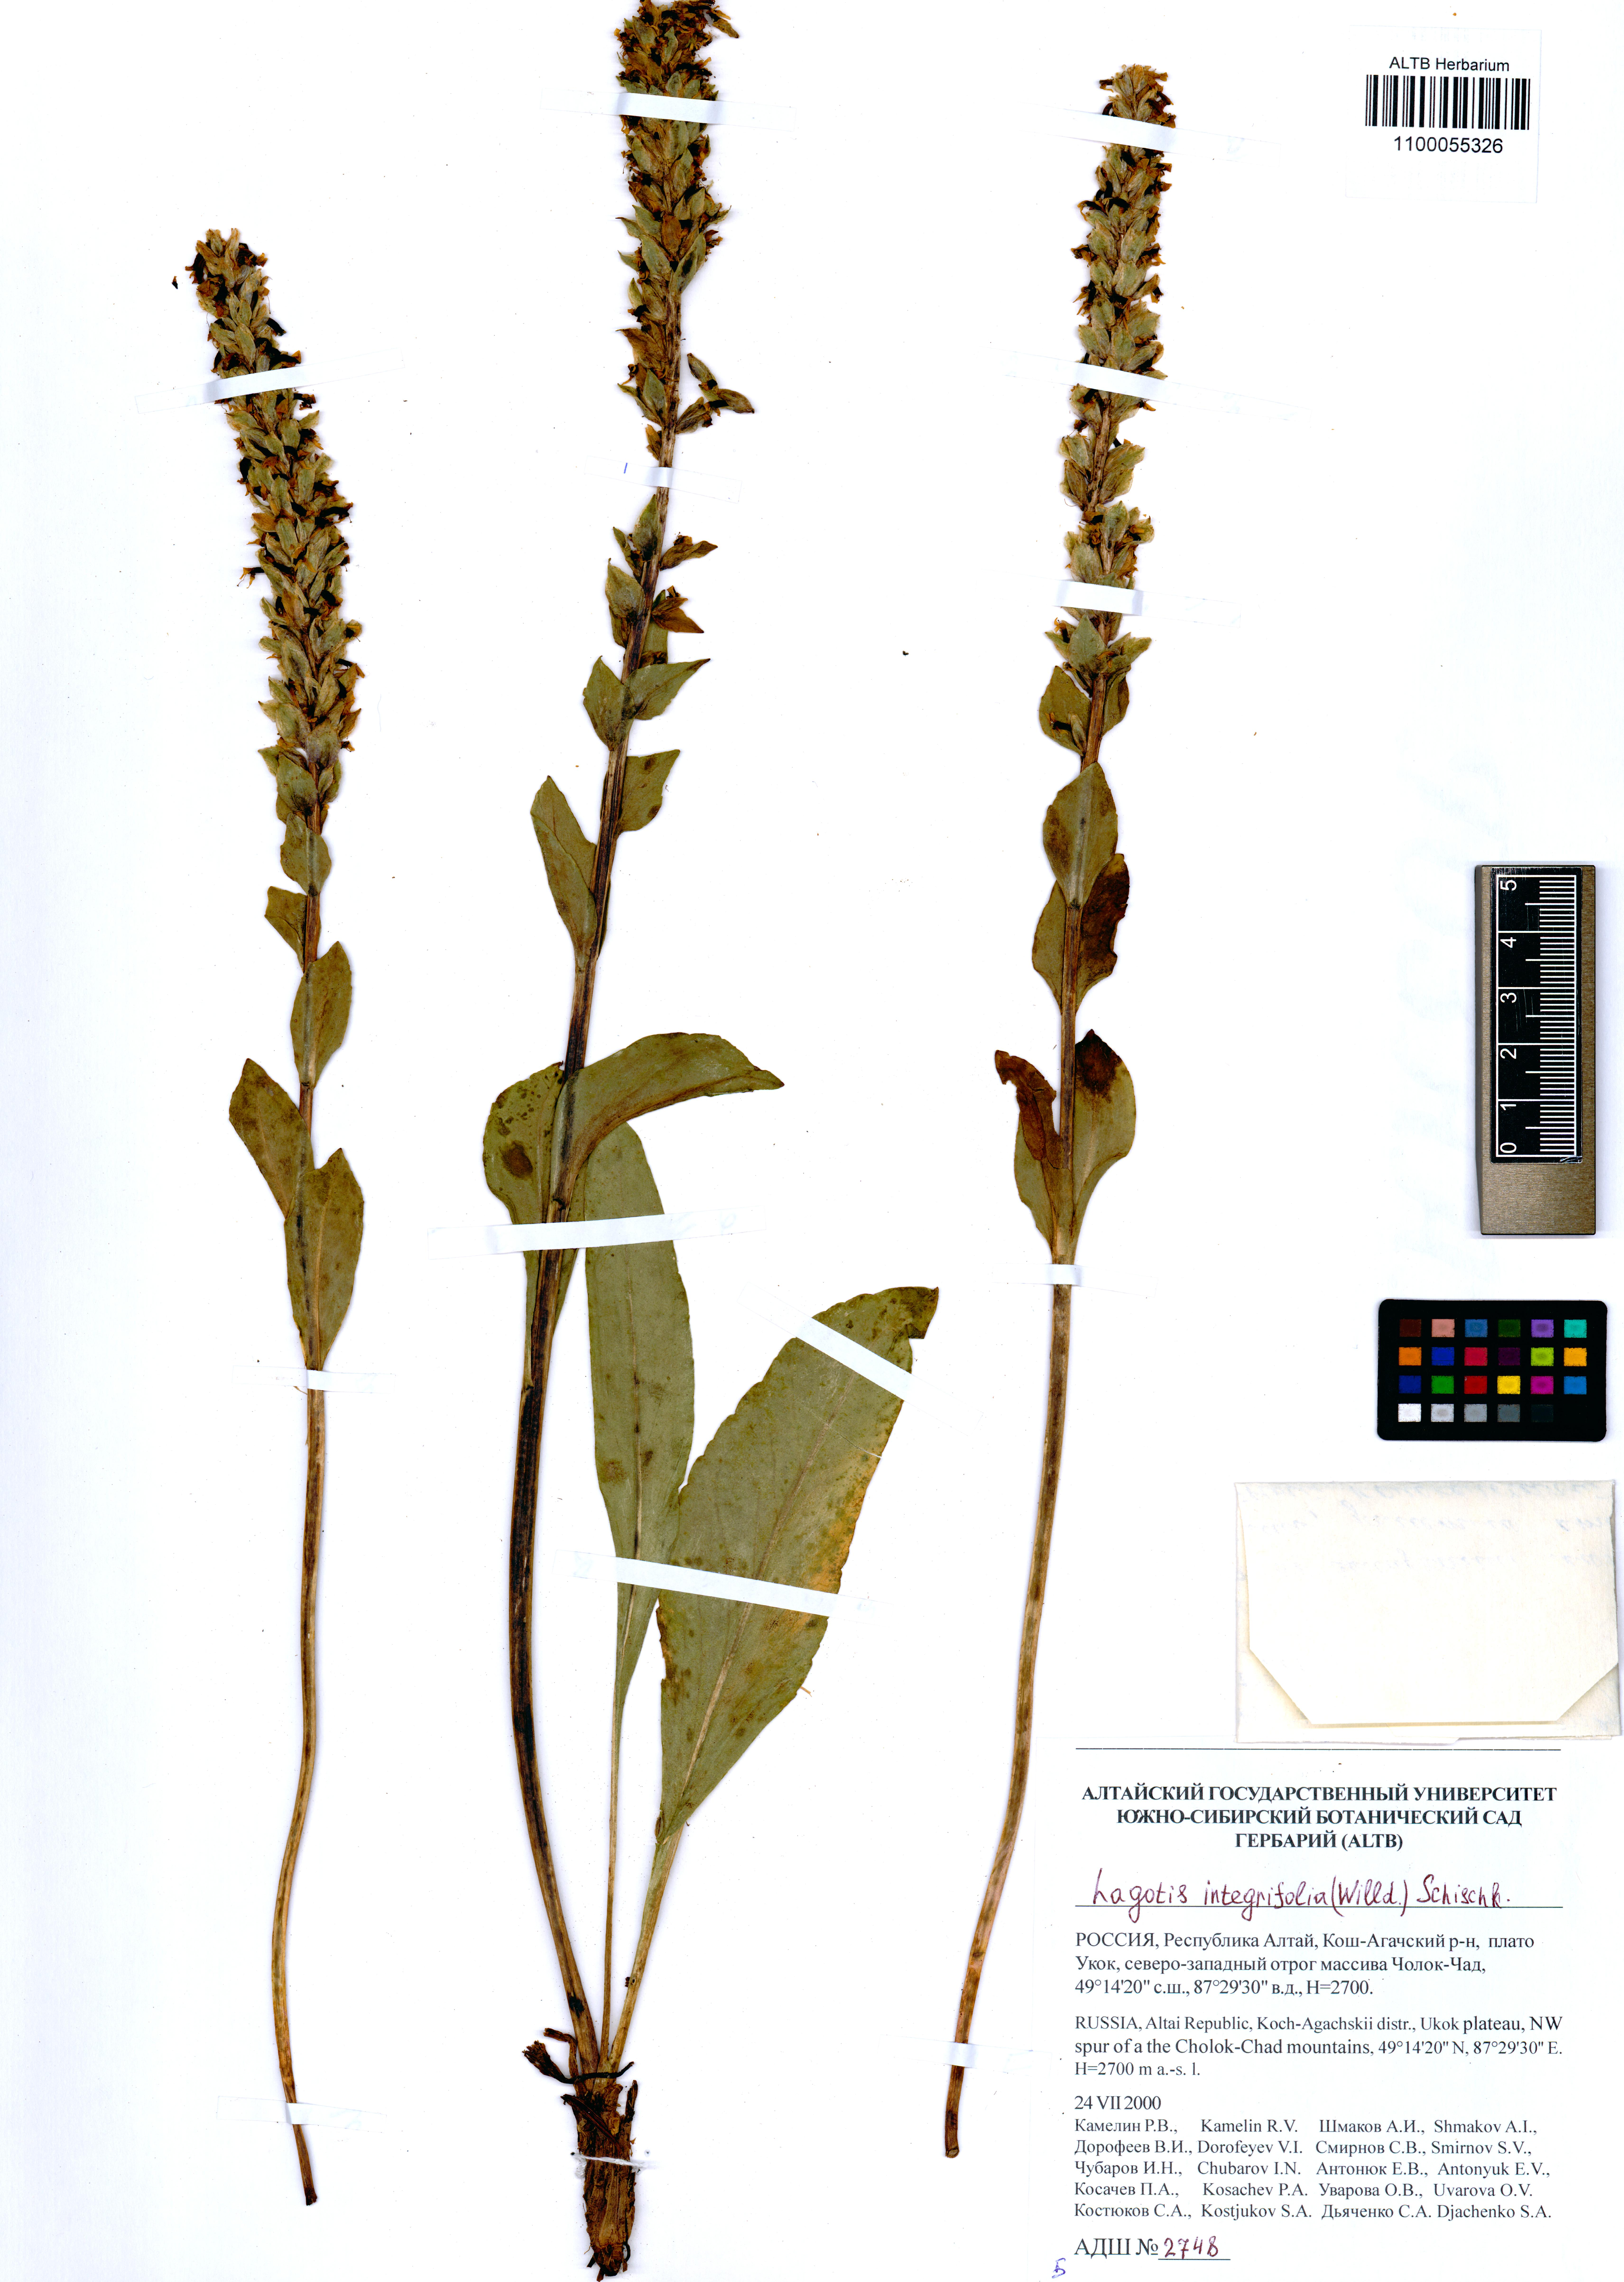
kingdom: Plantae
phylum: Tracheophyta
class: Magnoliopsida
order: Lamiales
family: Plantaginaceae
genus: Lagotis
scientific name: Lagotis integrifolia
